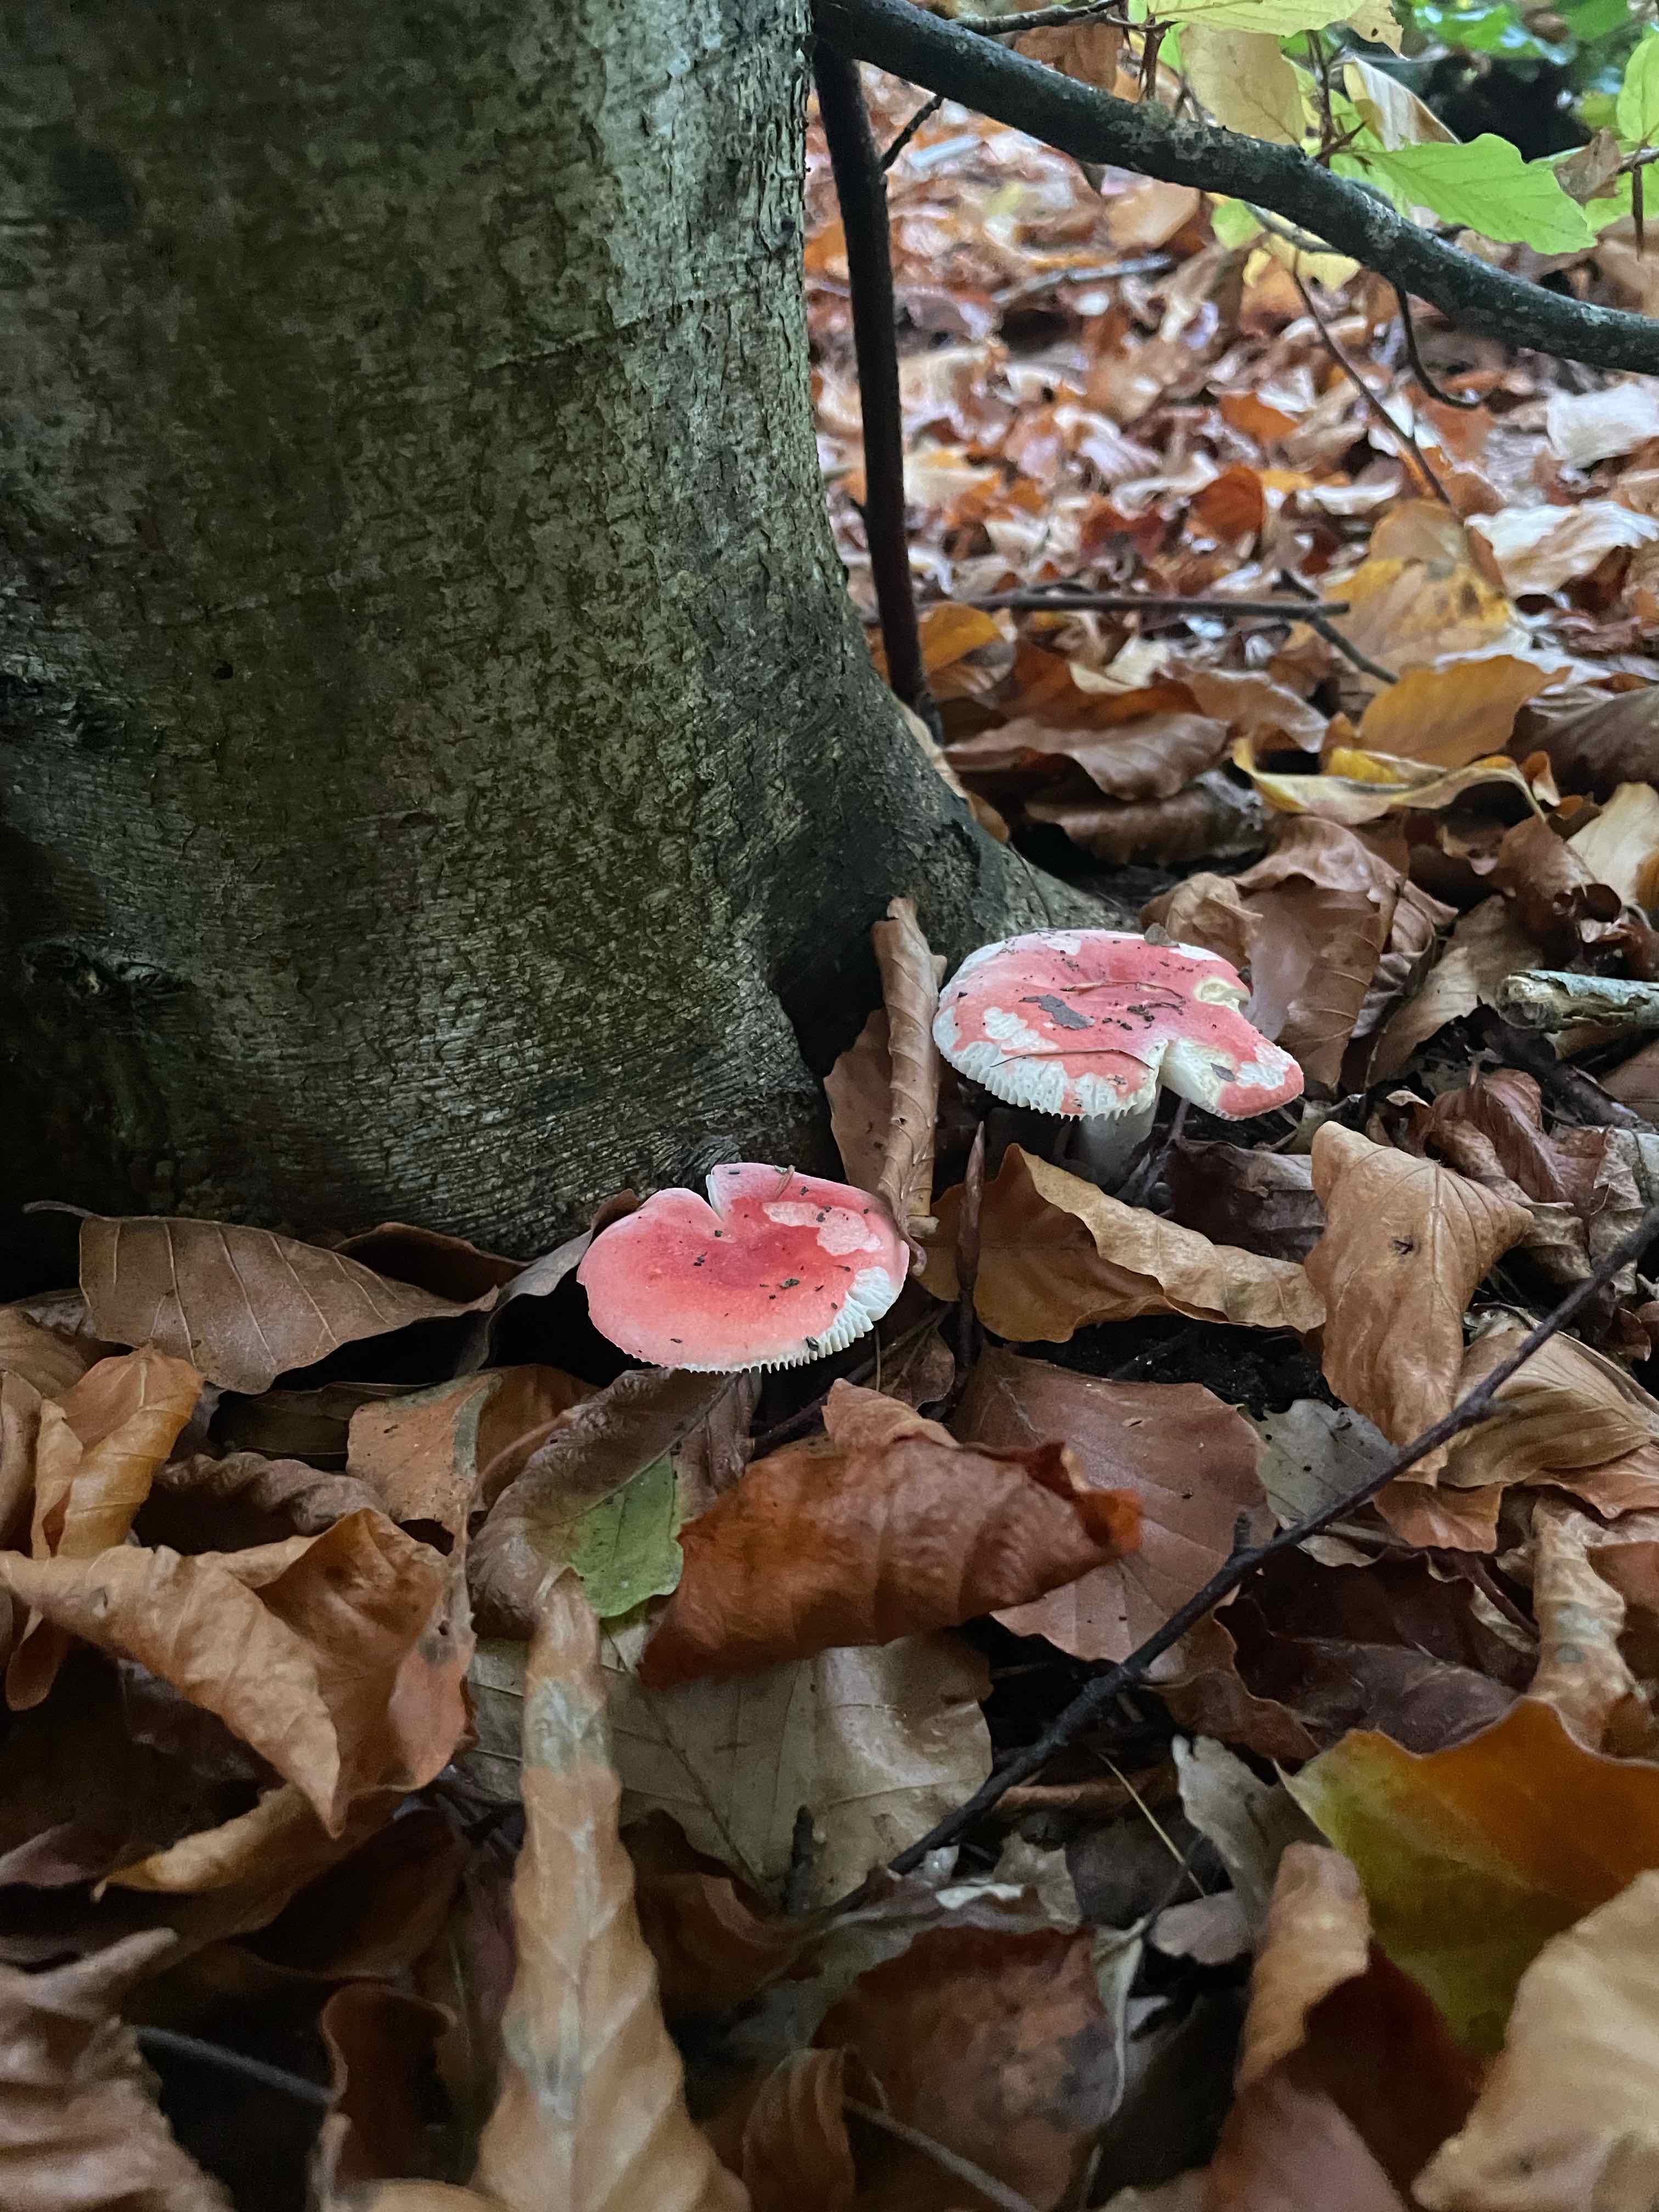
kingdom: Fungi
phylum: Basidiomycota
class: Agaricomycetes
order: Russulales
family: Russulaceae
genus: Russula
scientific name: Russula nobilis
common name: lille gift-skørhat
